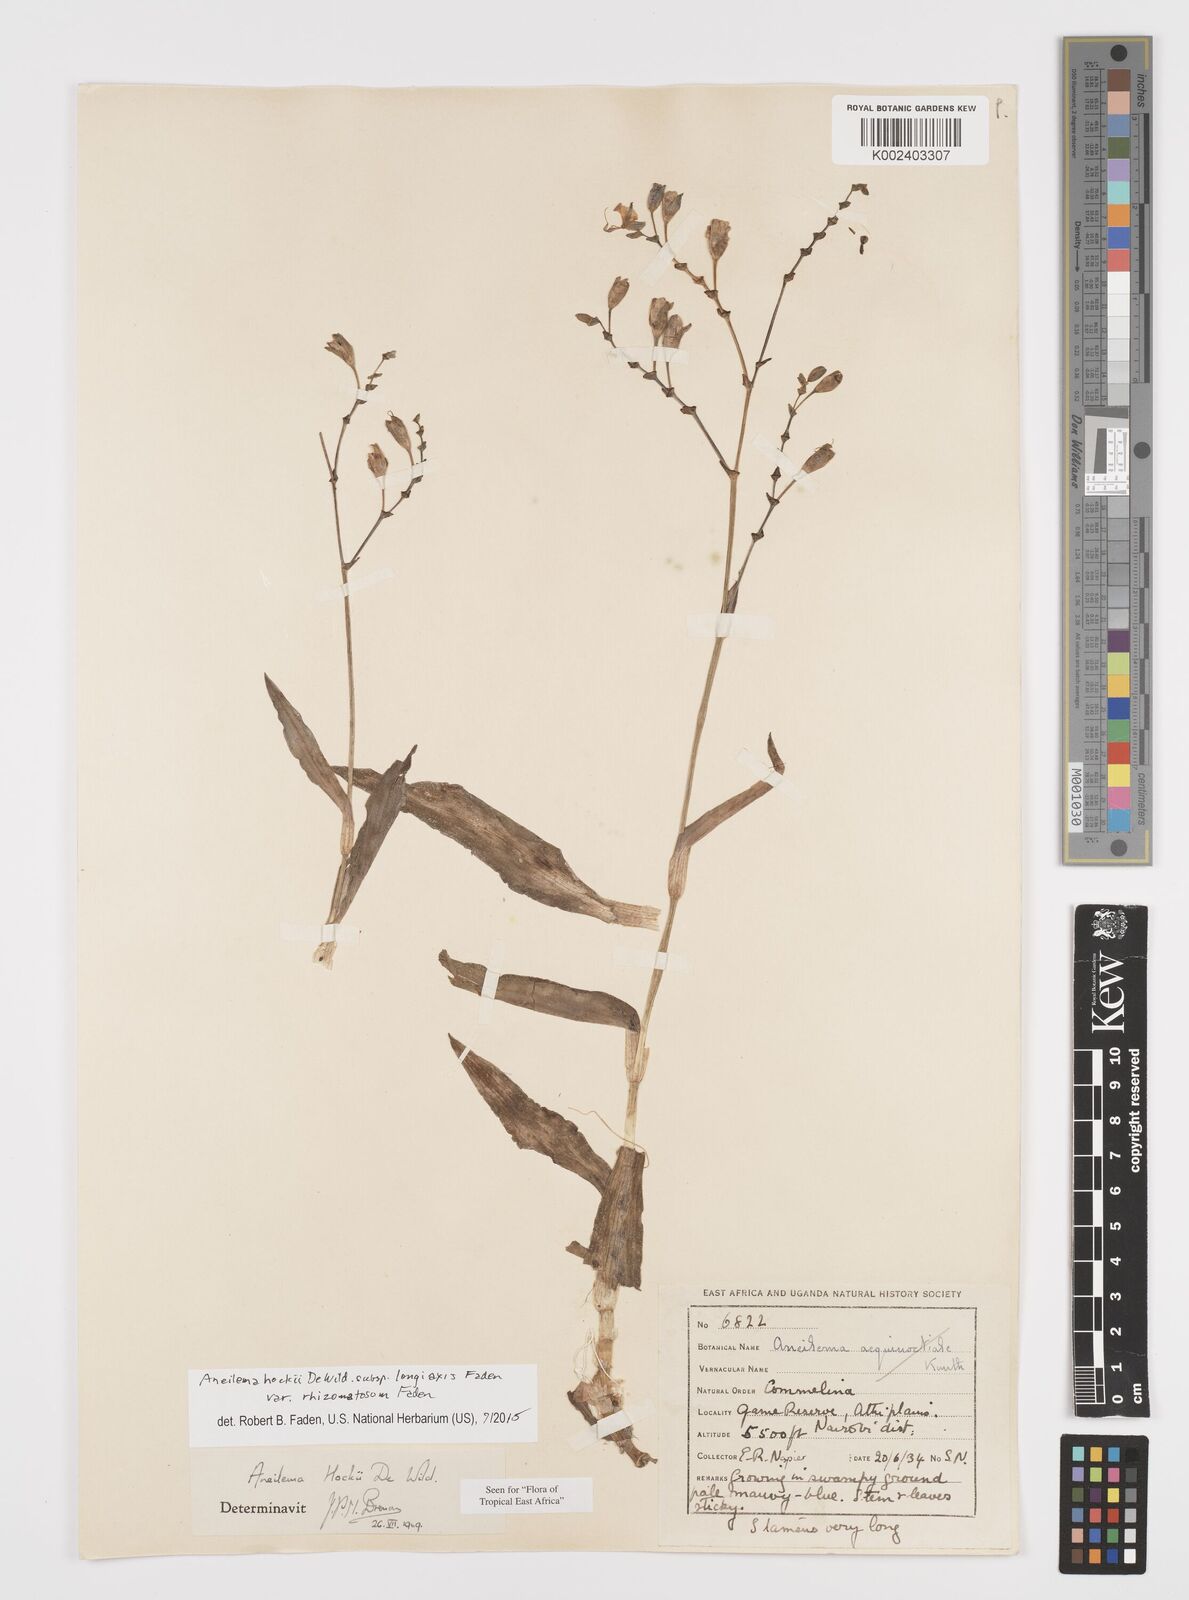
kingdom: Plantae
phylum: Tracheophyta
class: Liliopsida
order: Commelinales
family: Commelinaceae
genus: Aneilema
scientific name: Aneilema hockii
